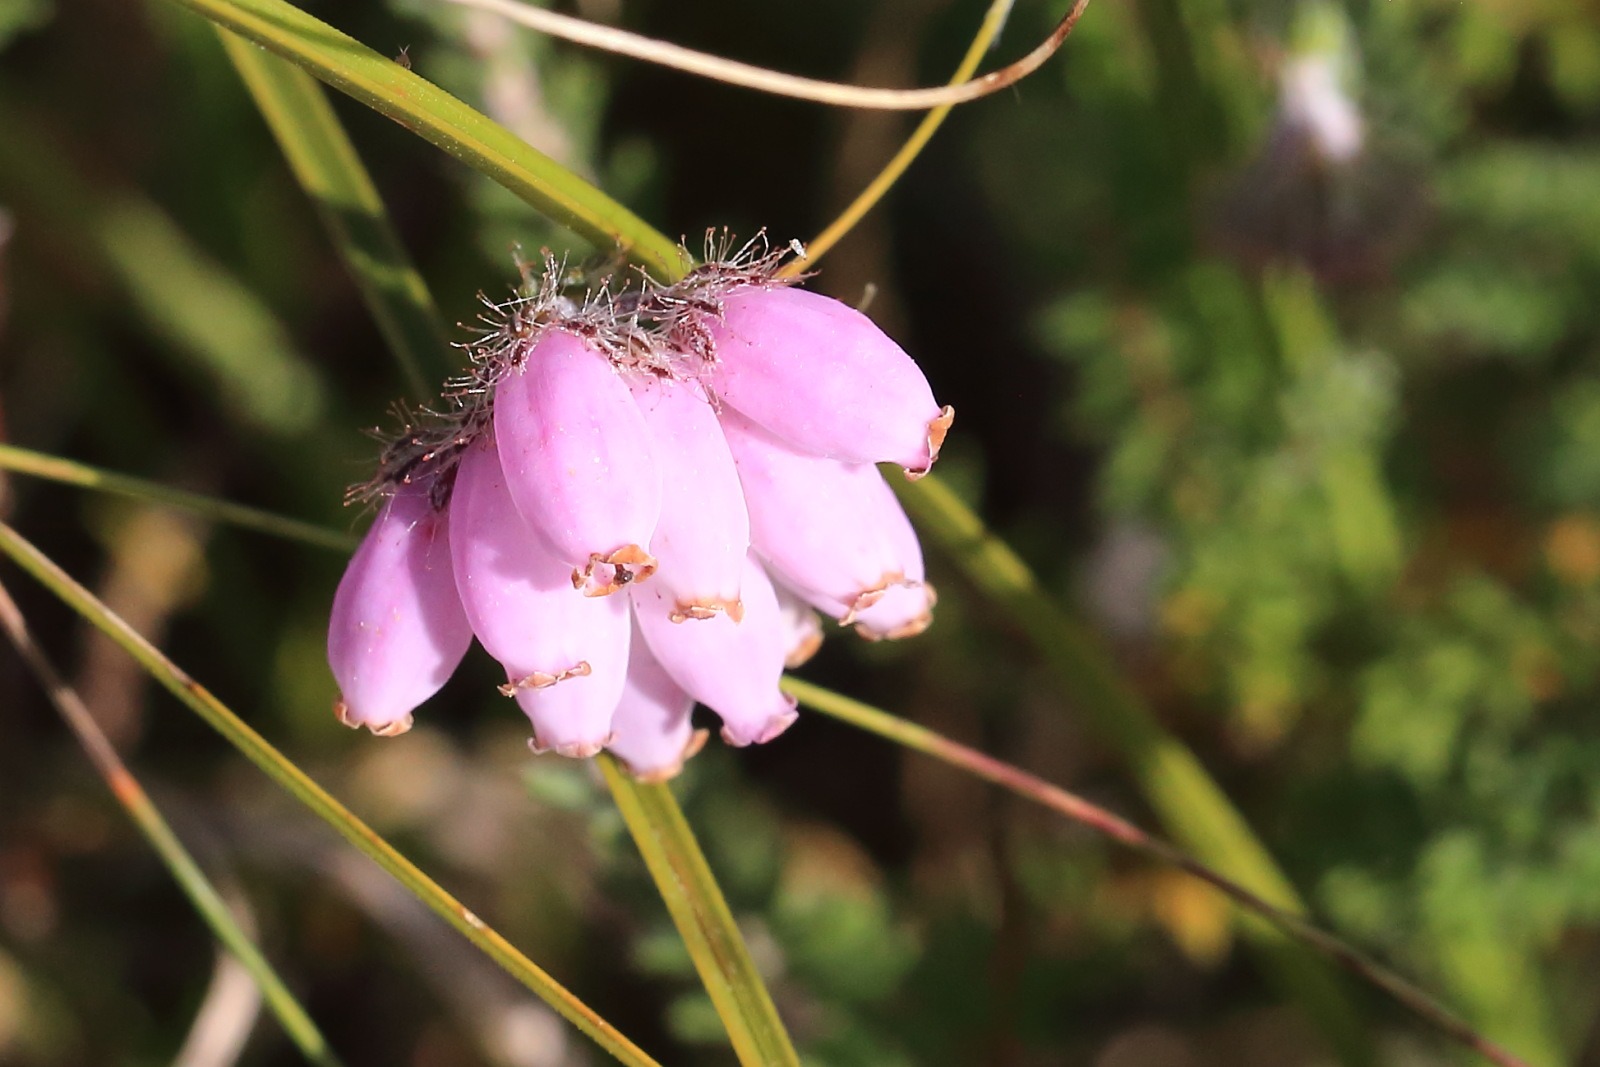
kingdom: Plantae
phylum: Tracheophyta
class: Magnoliopsida
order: Ericales
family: Ericaceae
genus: Erica
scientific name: Erica tetralix
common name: Klokkelyng
